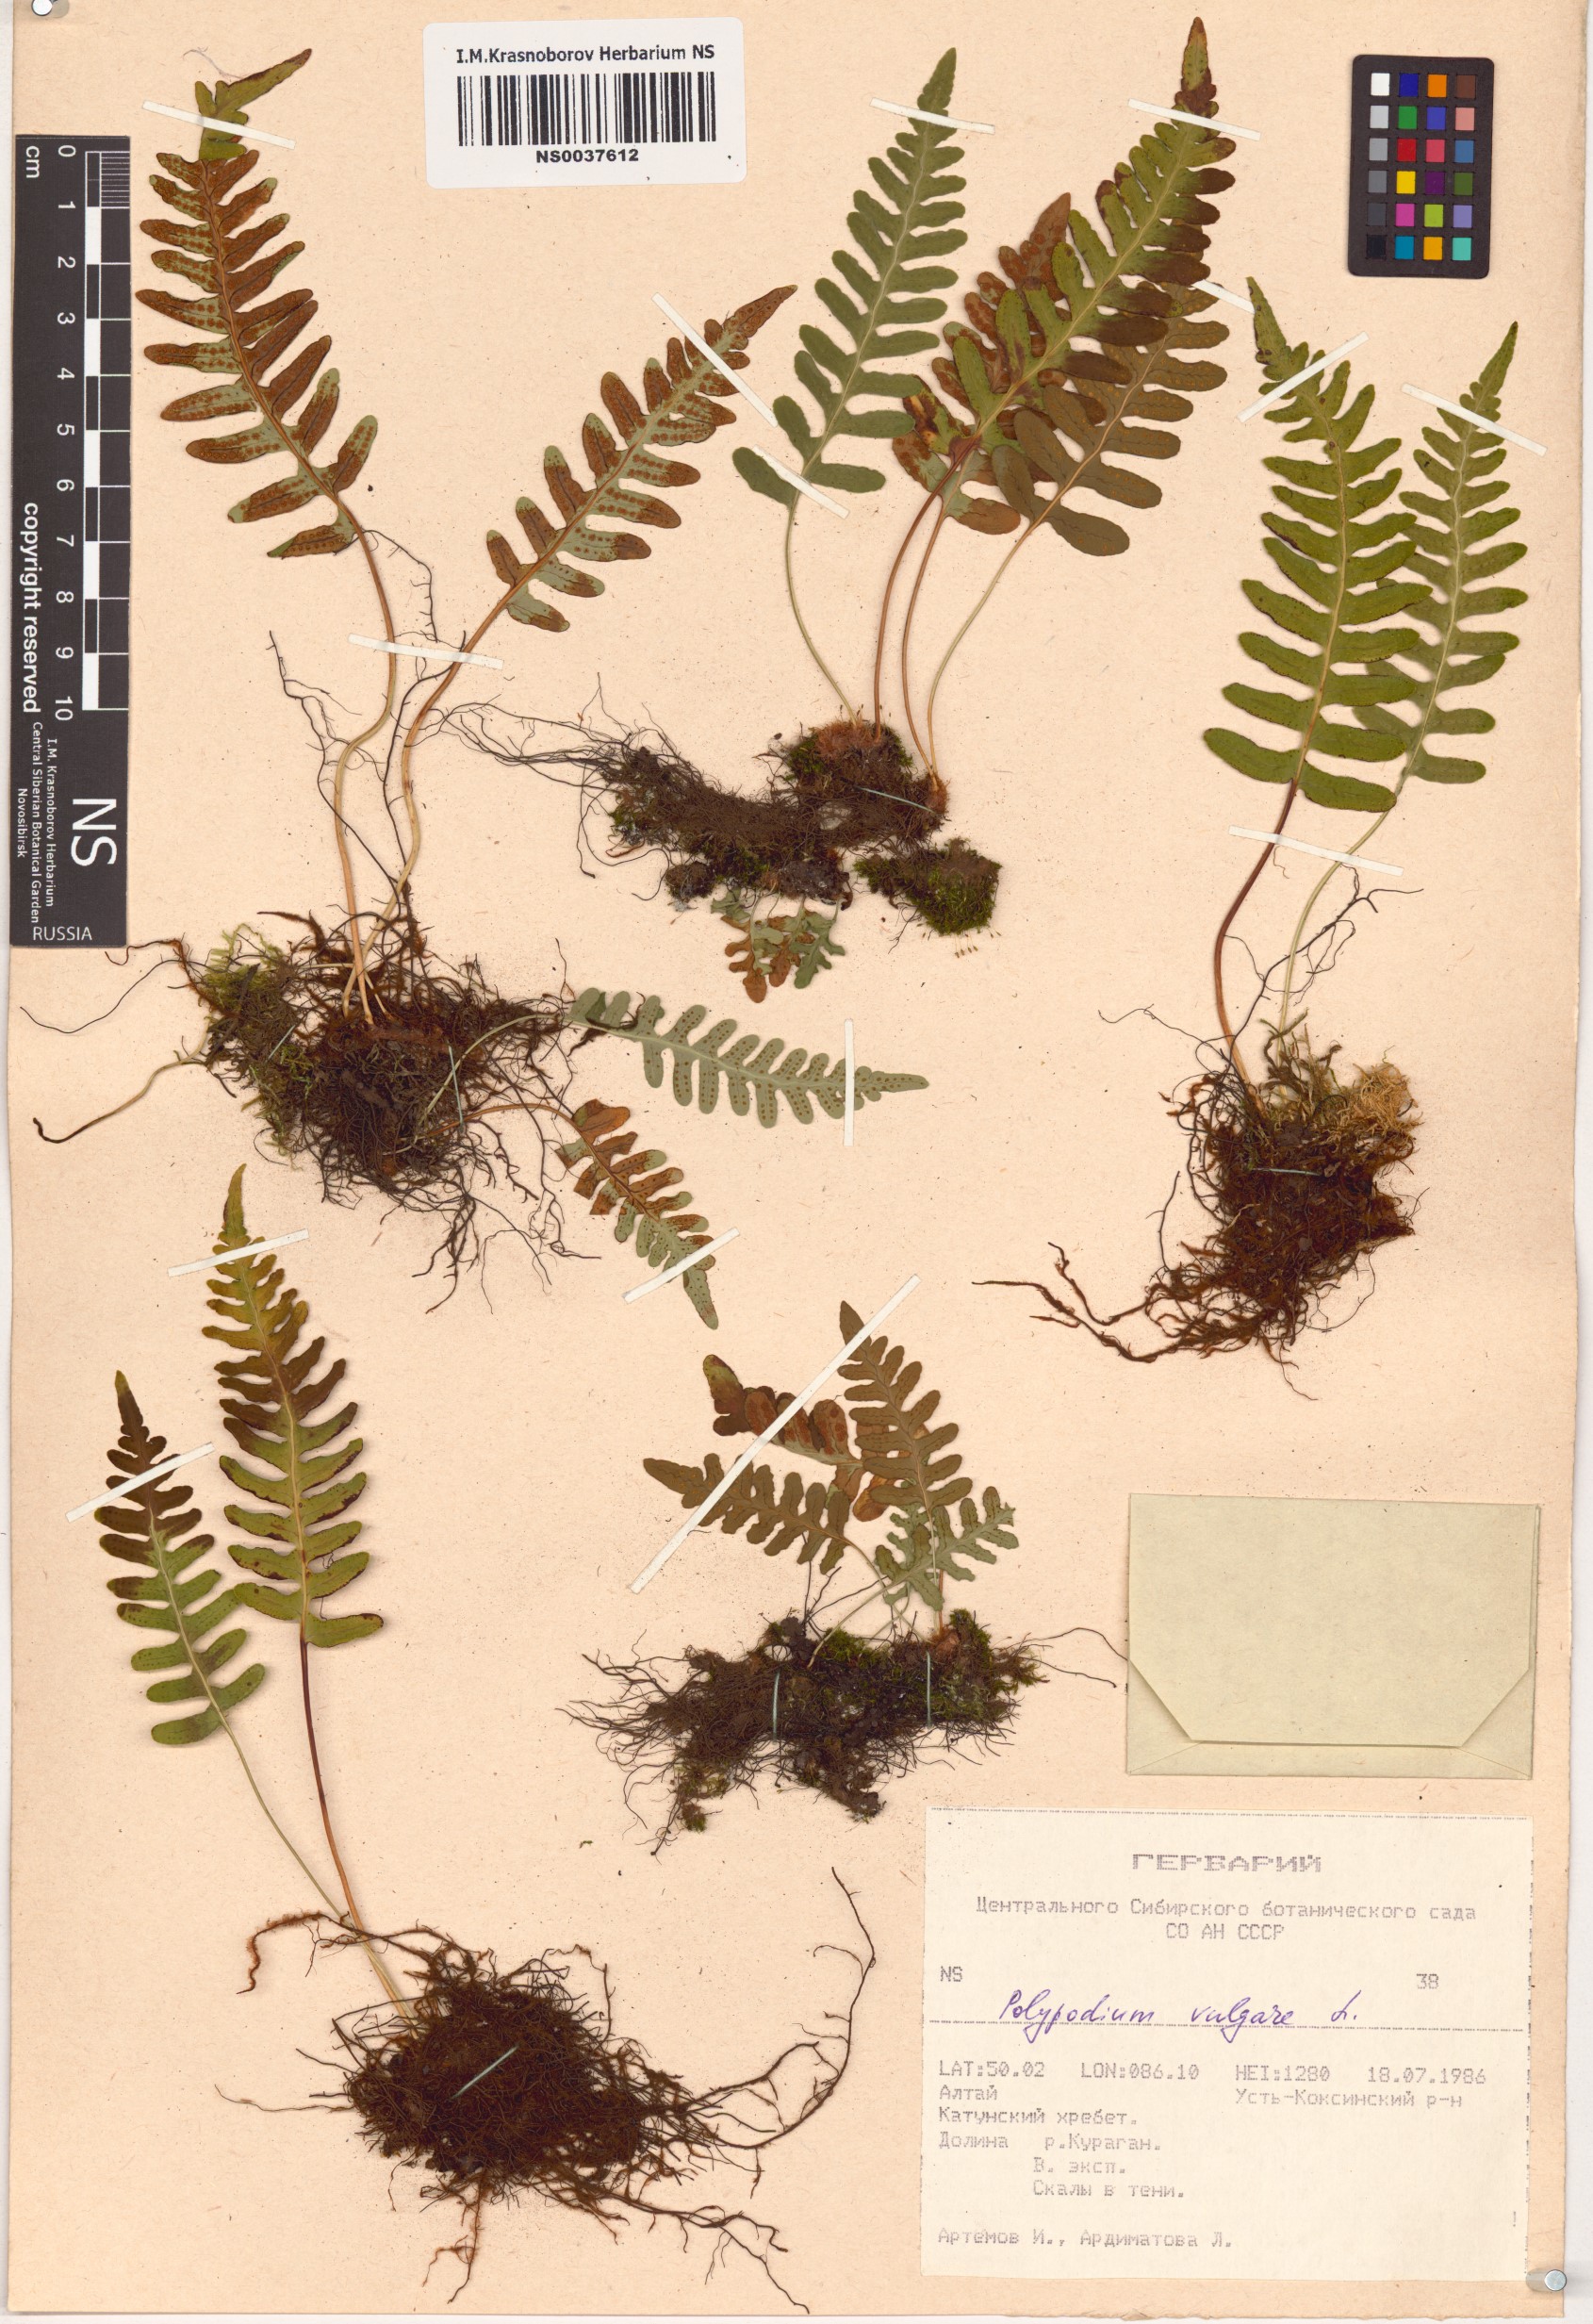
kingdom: Plantae
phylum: Tracheophyta
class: Polypodiopsida
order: Polypodiales
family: Polypodiaceae
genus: Polypodium
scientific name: Polypodium vulgare
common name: Common polypody
